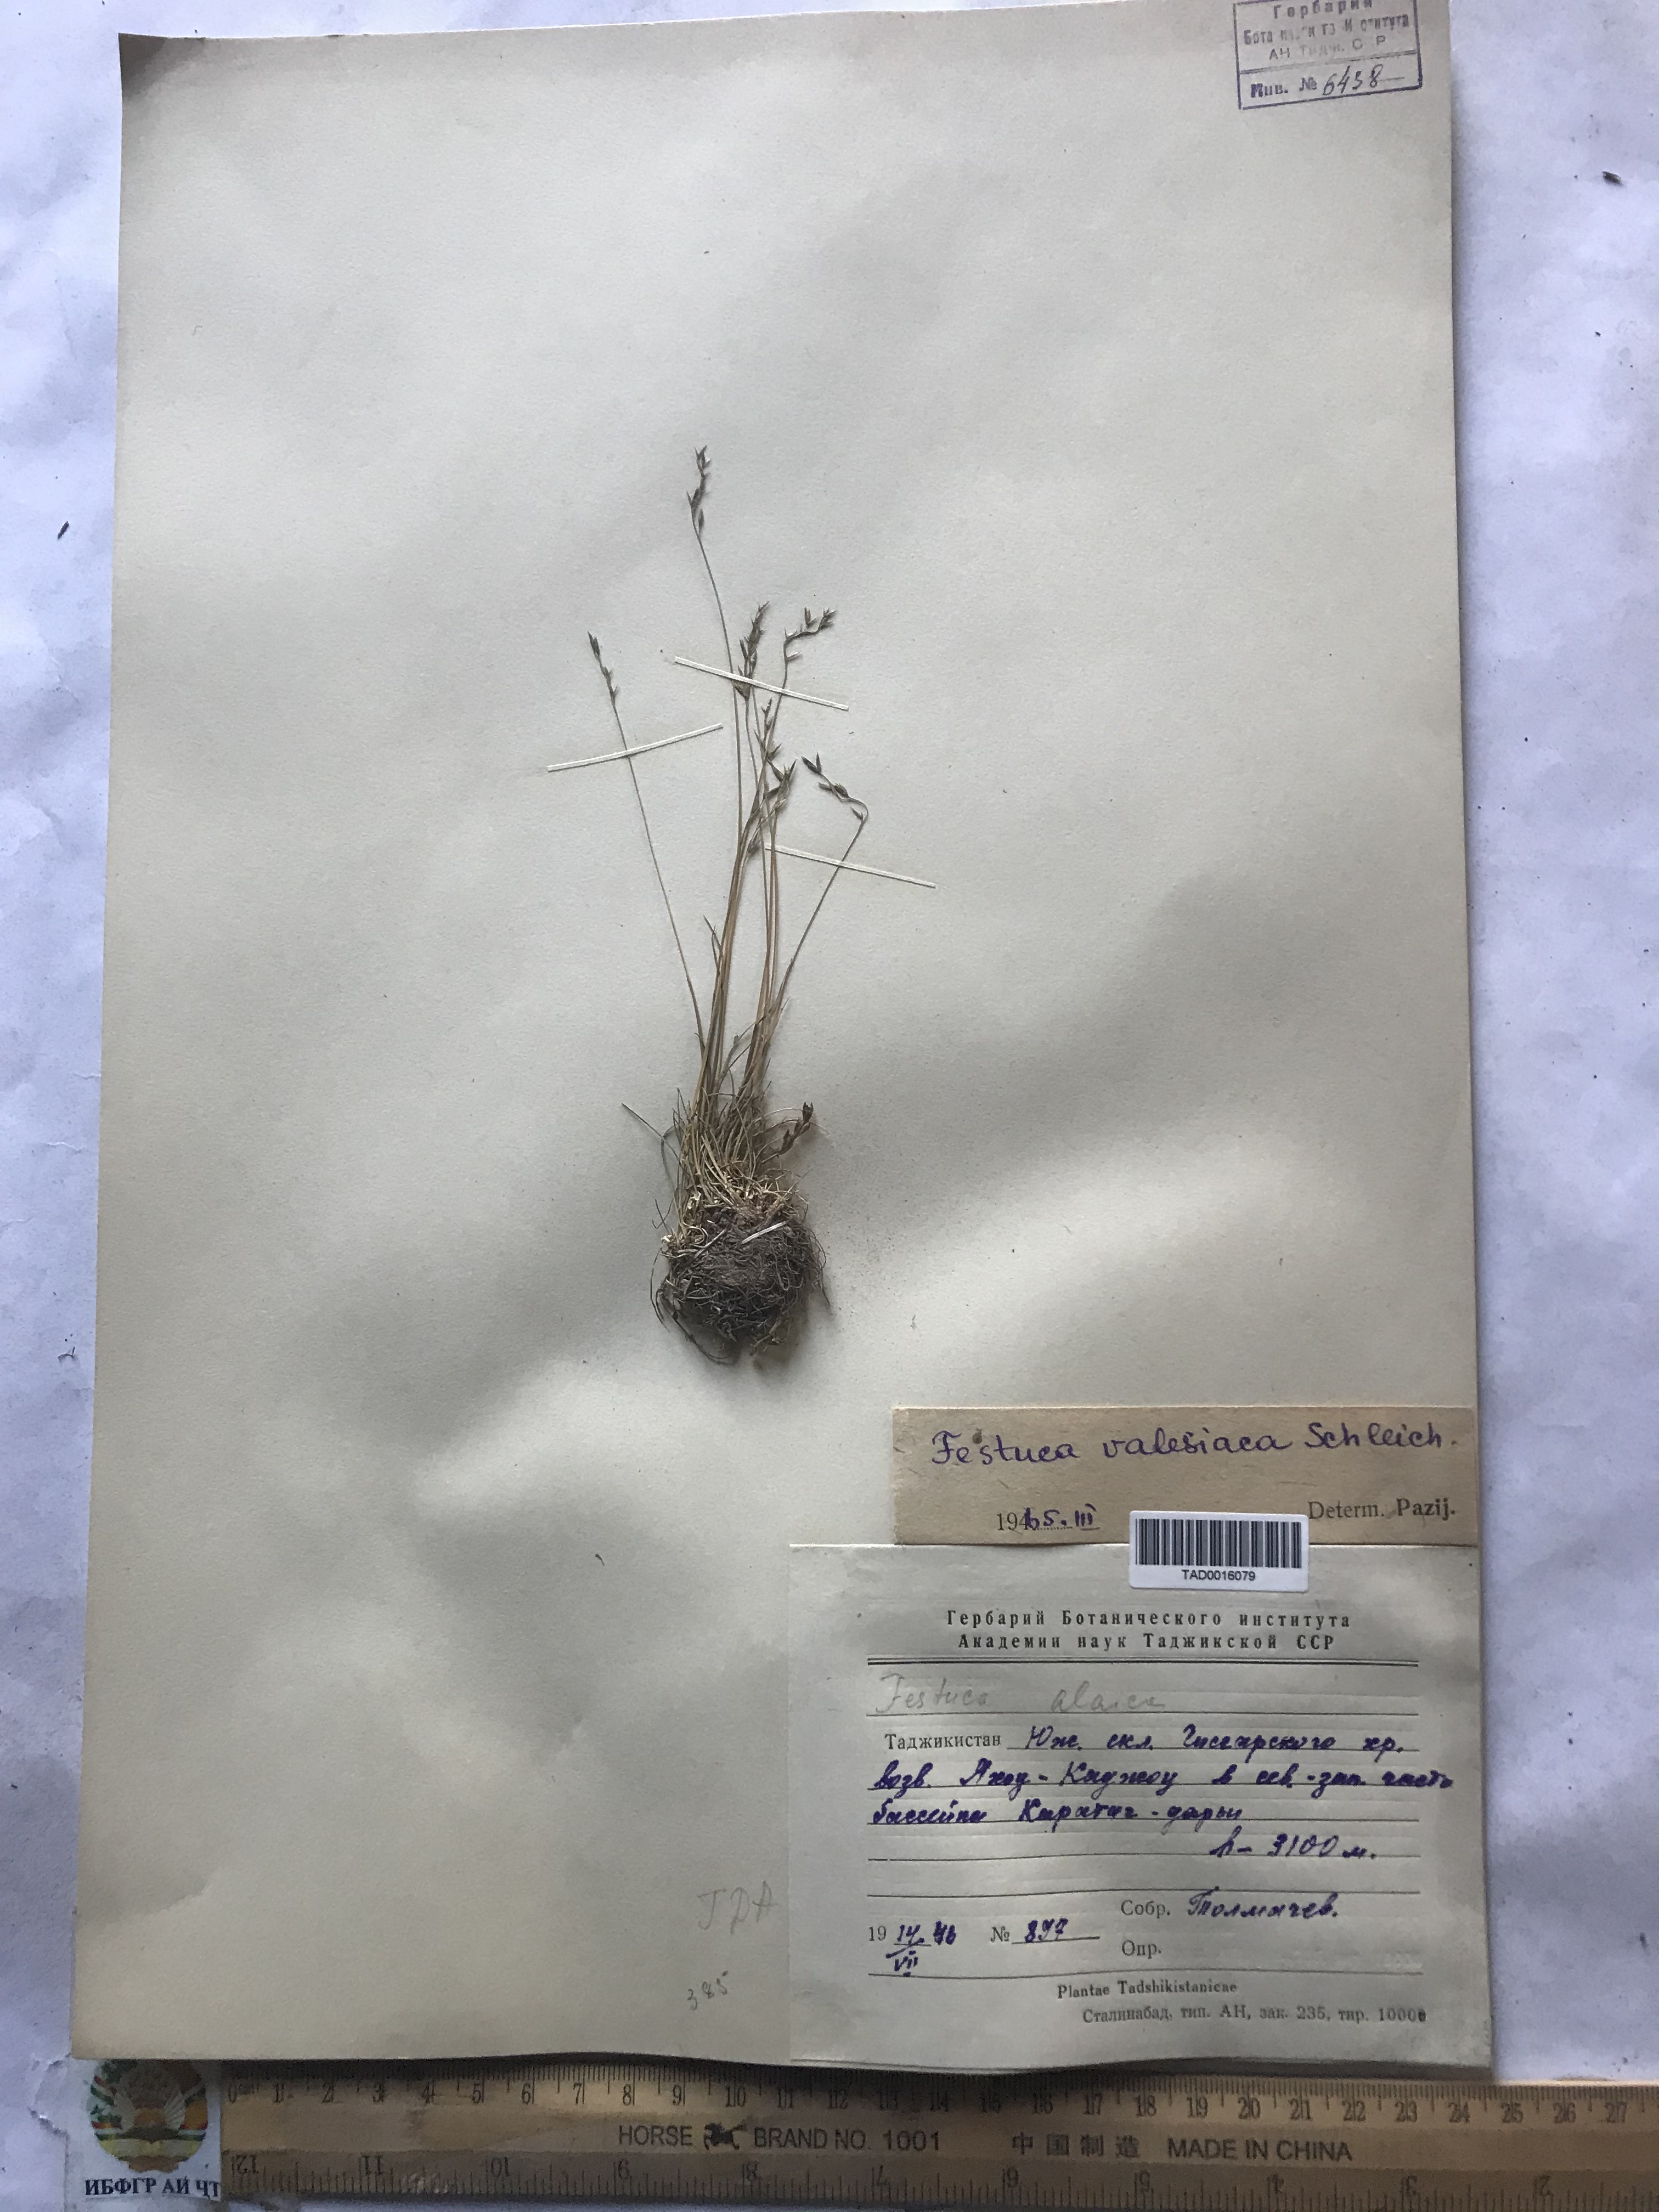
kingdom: Plantae
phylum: Tracheophyta
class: Liliopsida
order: Poales
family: Poaceae
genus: Festuca
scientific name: Festuca valesiaca
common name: Volga fescue
